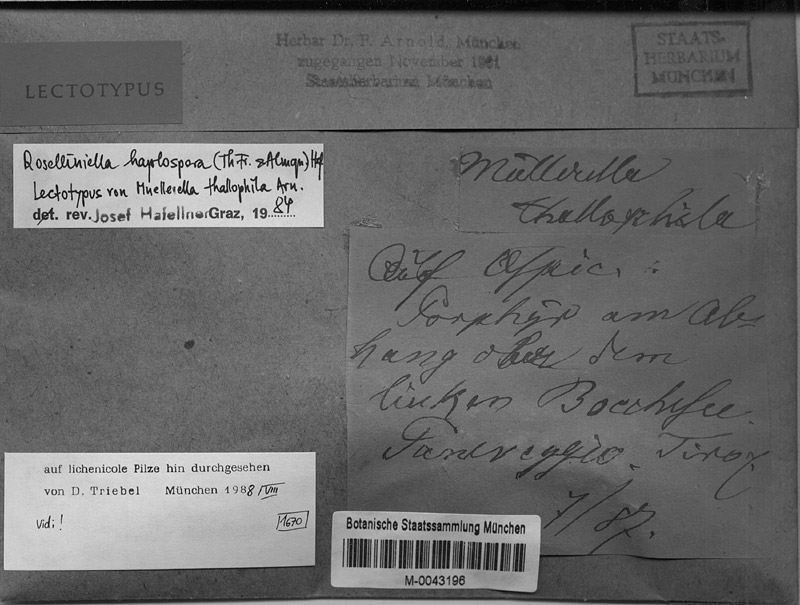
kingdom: Fungi
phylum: Ascomycota
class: Lecanoromycetes
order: Pertusariales
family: Megasporaceae
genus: Circinaria
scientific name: Circinaria caesiocinerea
